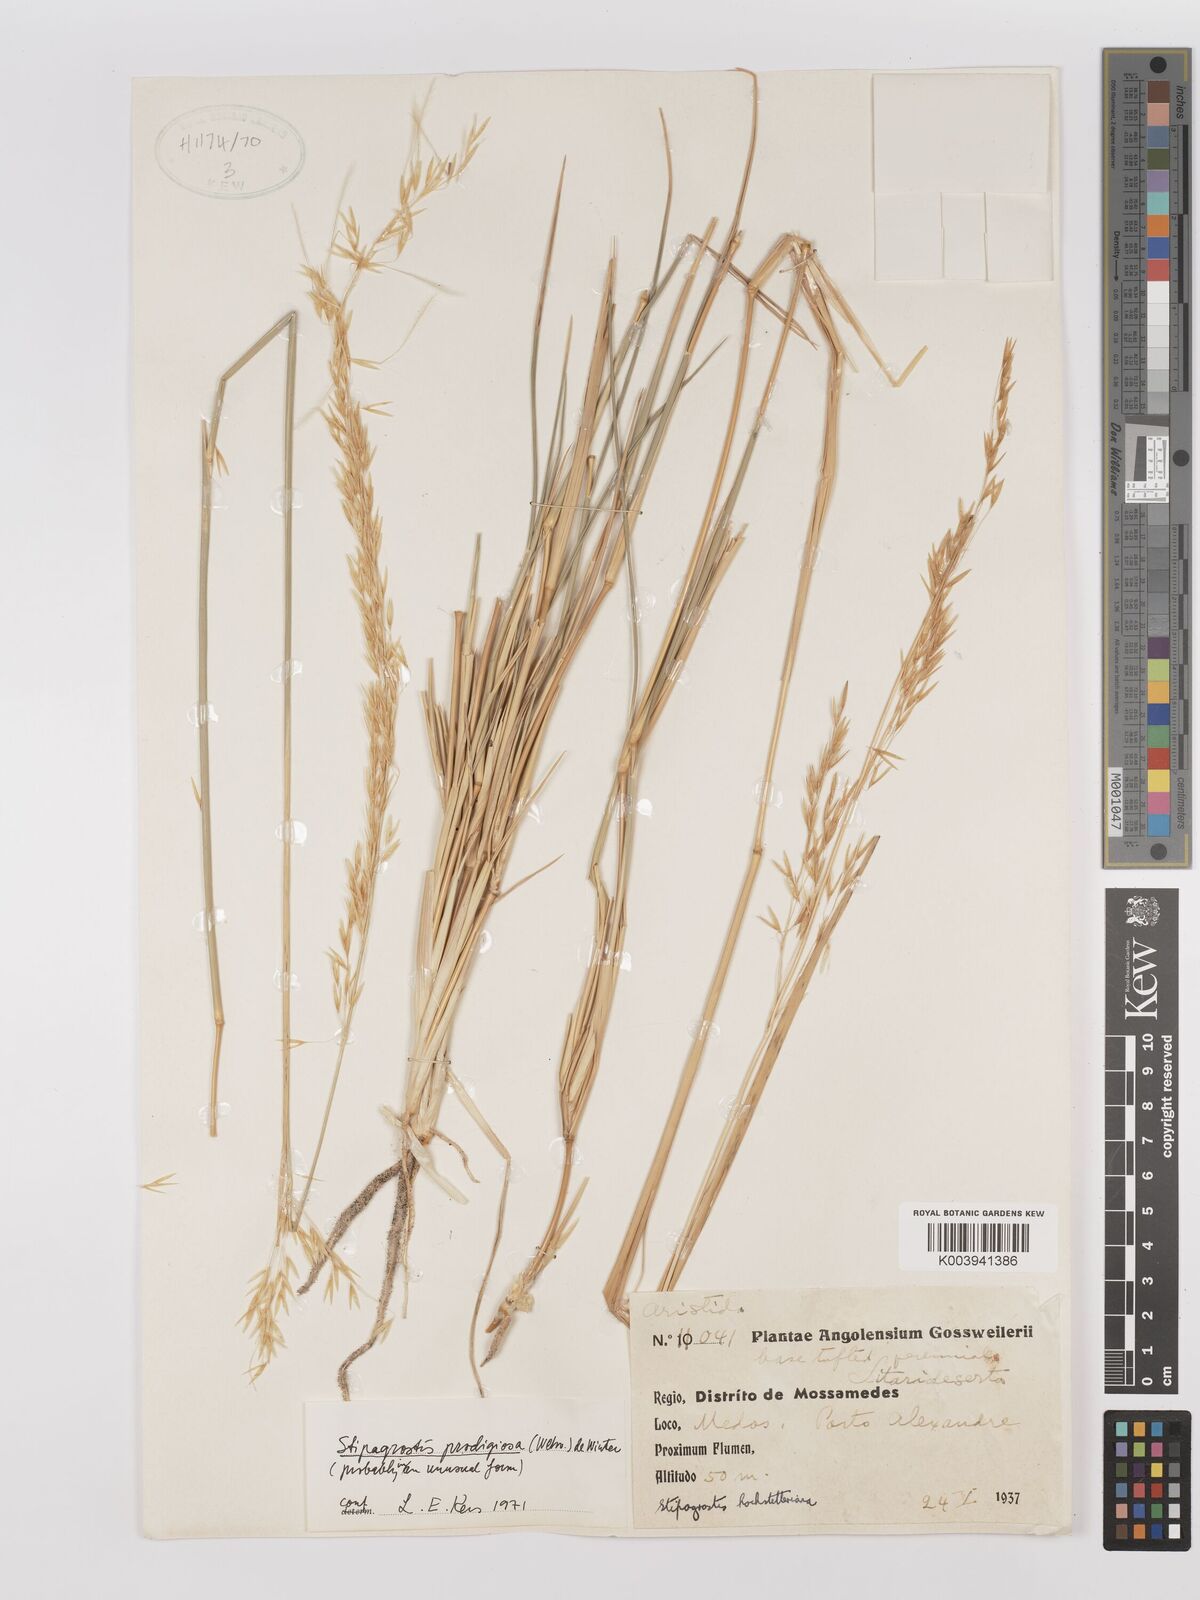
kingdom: Plantae
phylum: Tracheophyta
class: Liliopsida
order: Poales
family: Poaceae
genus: Stipagrostis
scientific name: Stipagrostis prodigiosa
